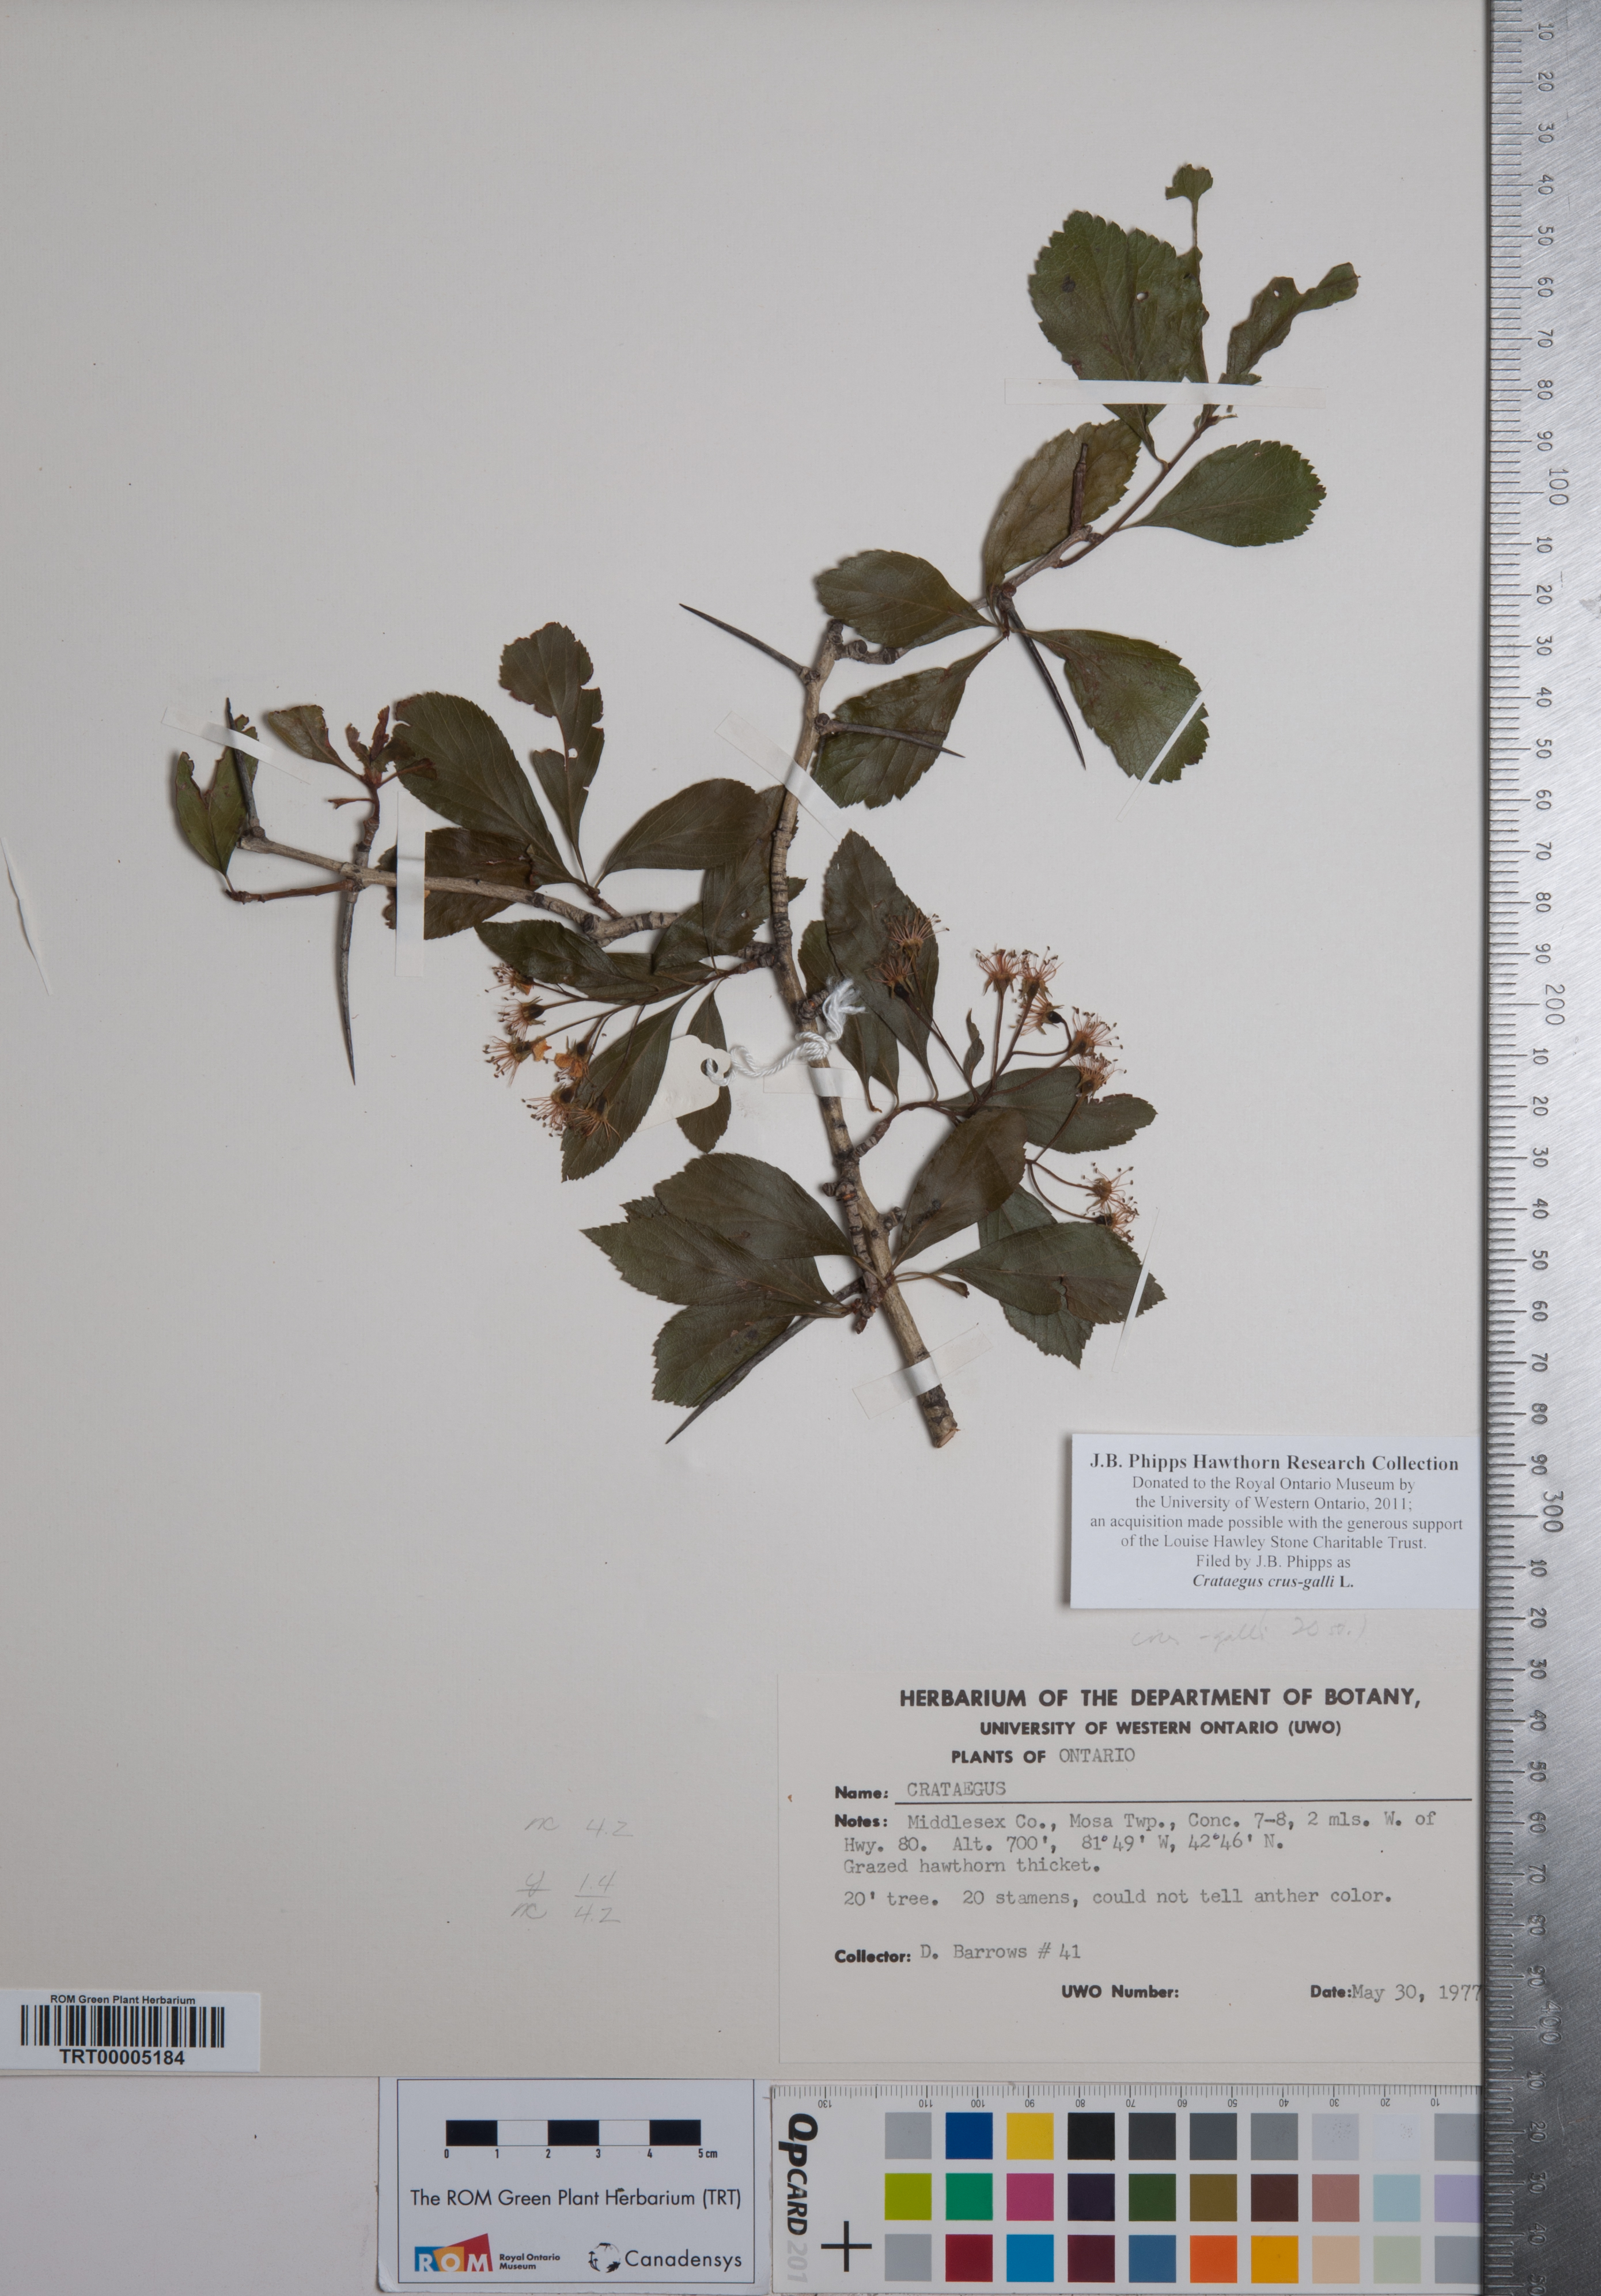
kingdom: Plantae
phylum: Tracheophyta
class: Magnoliopsida
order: Rosales
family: Rosaceae
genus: Crataegus
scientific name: Crataegus crus-galli
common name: Cockspurthorn
